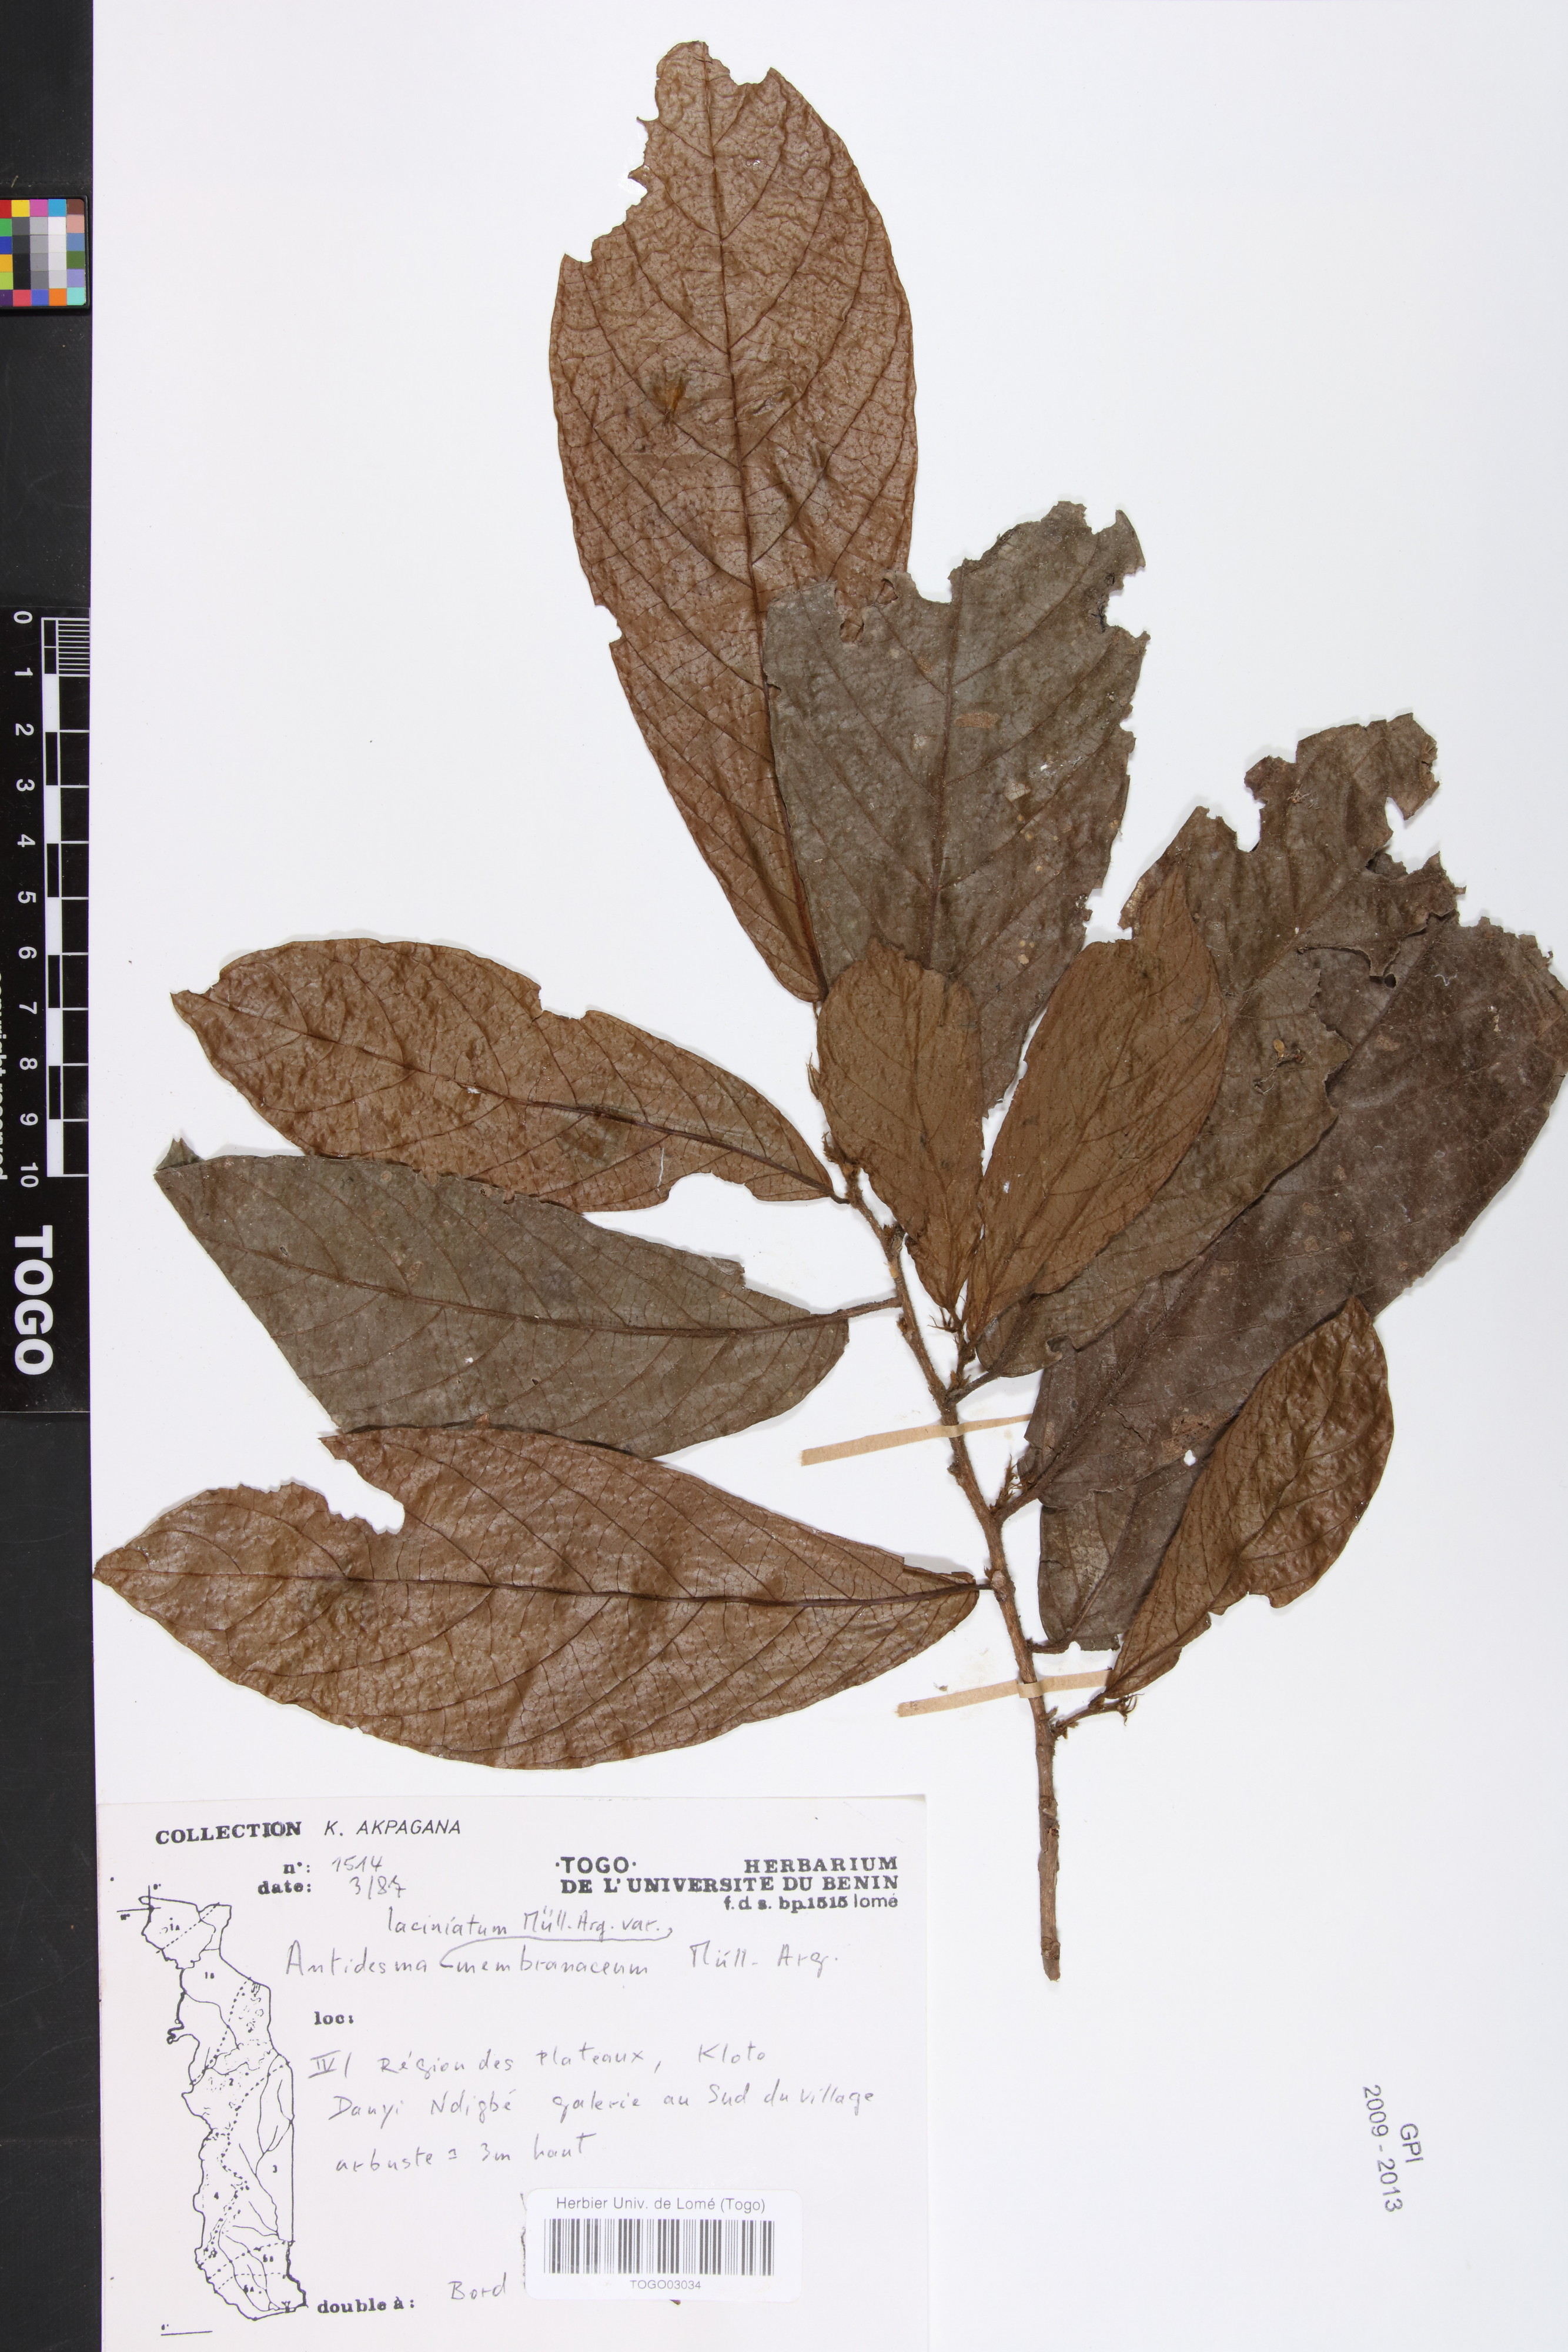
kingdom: Plantae
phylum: Tracheophyta
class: Magnoliopsida
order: Malpighiales
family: Phyllanthaceae
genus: Antidesma
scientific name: Antidesma laciniatum
